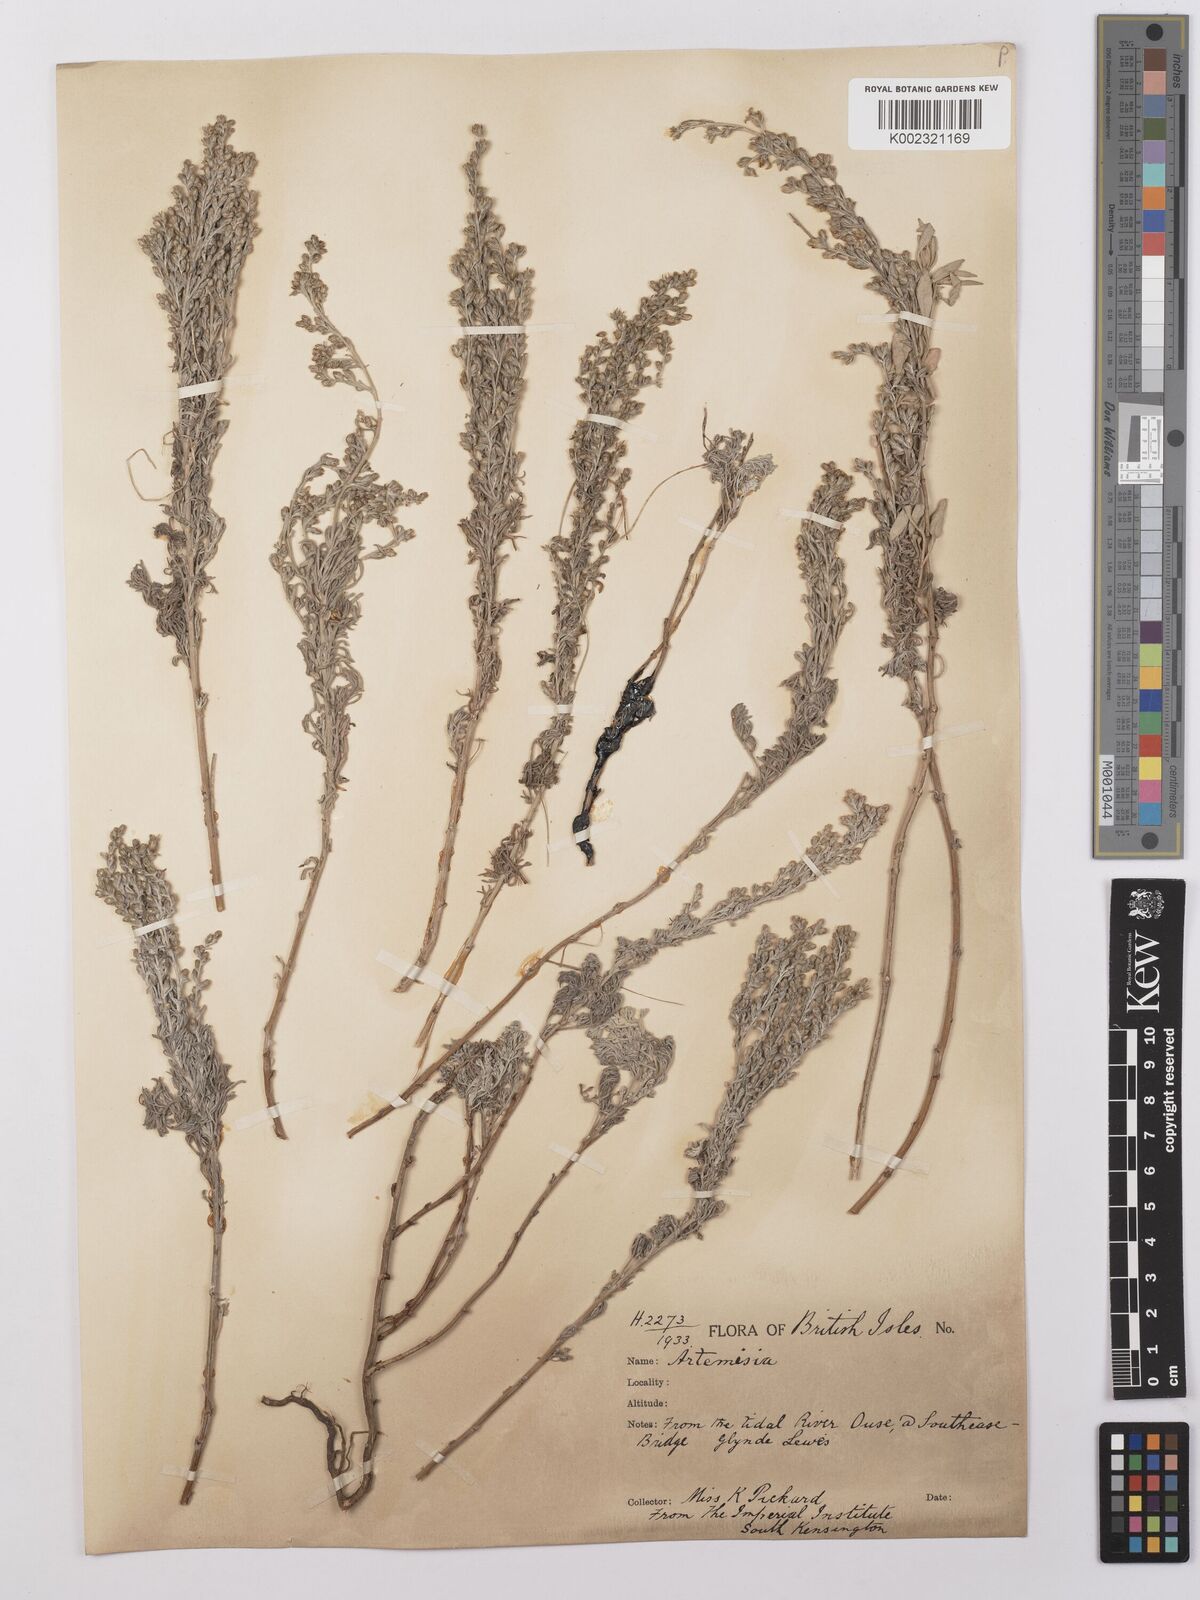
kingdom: Plantae
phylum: Tracheophyta
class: Magnoliopsida
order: Asterales
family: Asteraceae
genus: Artemisia
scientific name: Artemisia maritima
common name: Wormseed
